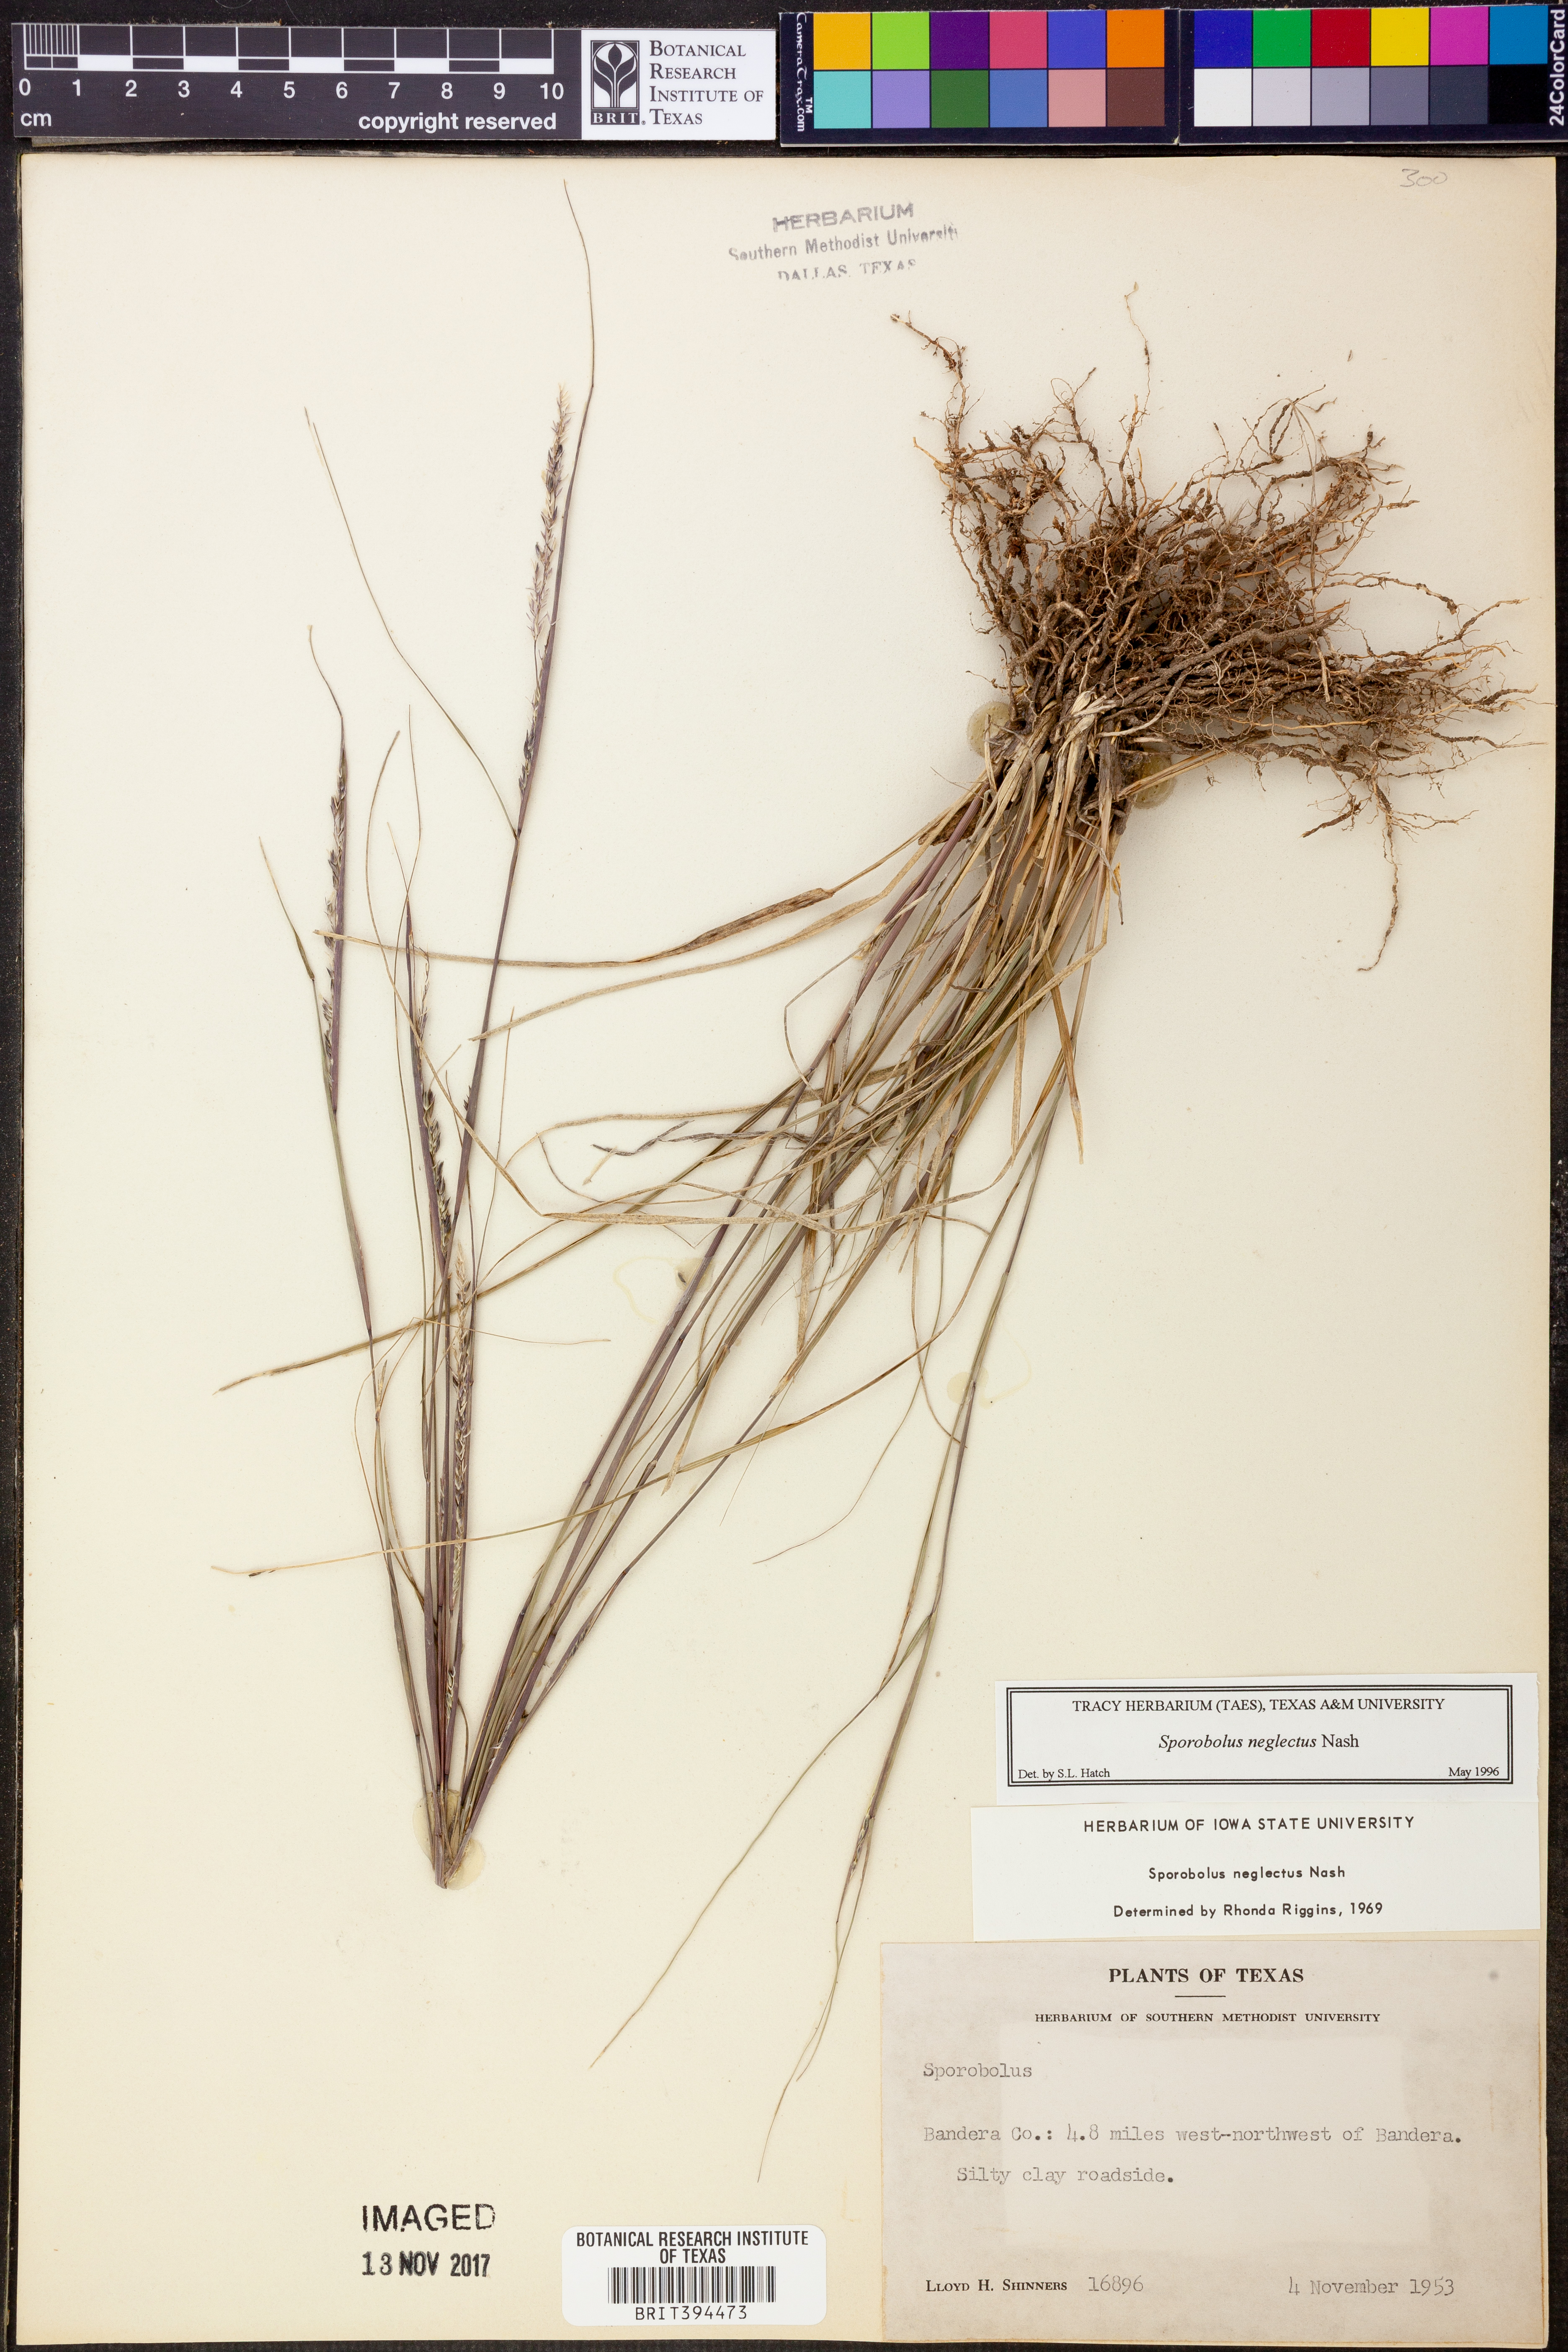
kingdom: Plantae
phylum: Tracheophyta
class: Liliopsida
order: Poales
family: Poaceae
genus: Sporobolus
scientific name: Sporobolus neglectus
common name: Annual dropseed
